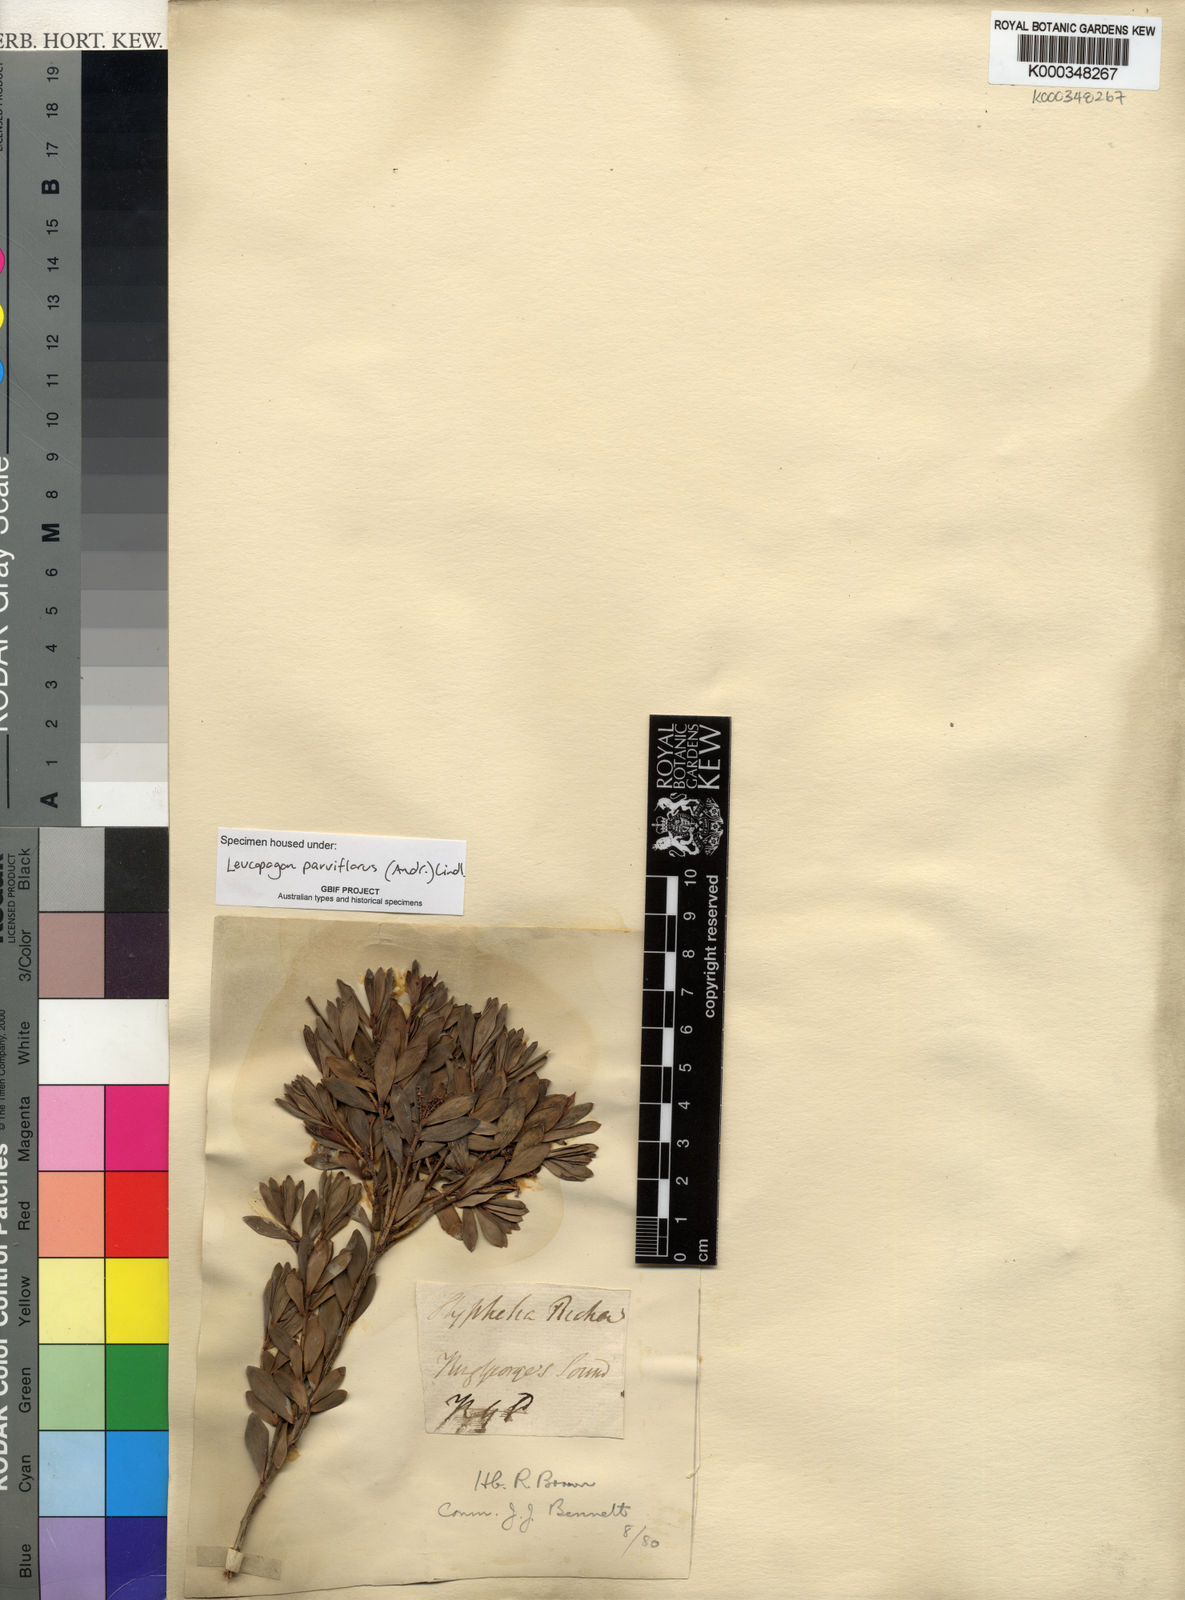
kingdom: Plantae
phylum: Tracheophyta
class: Magnoliopsida
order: Ericales
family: Ericaceae
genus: Leptecophylla
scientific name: Leptecophylla parvifolia
